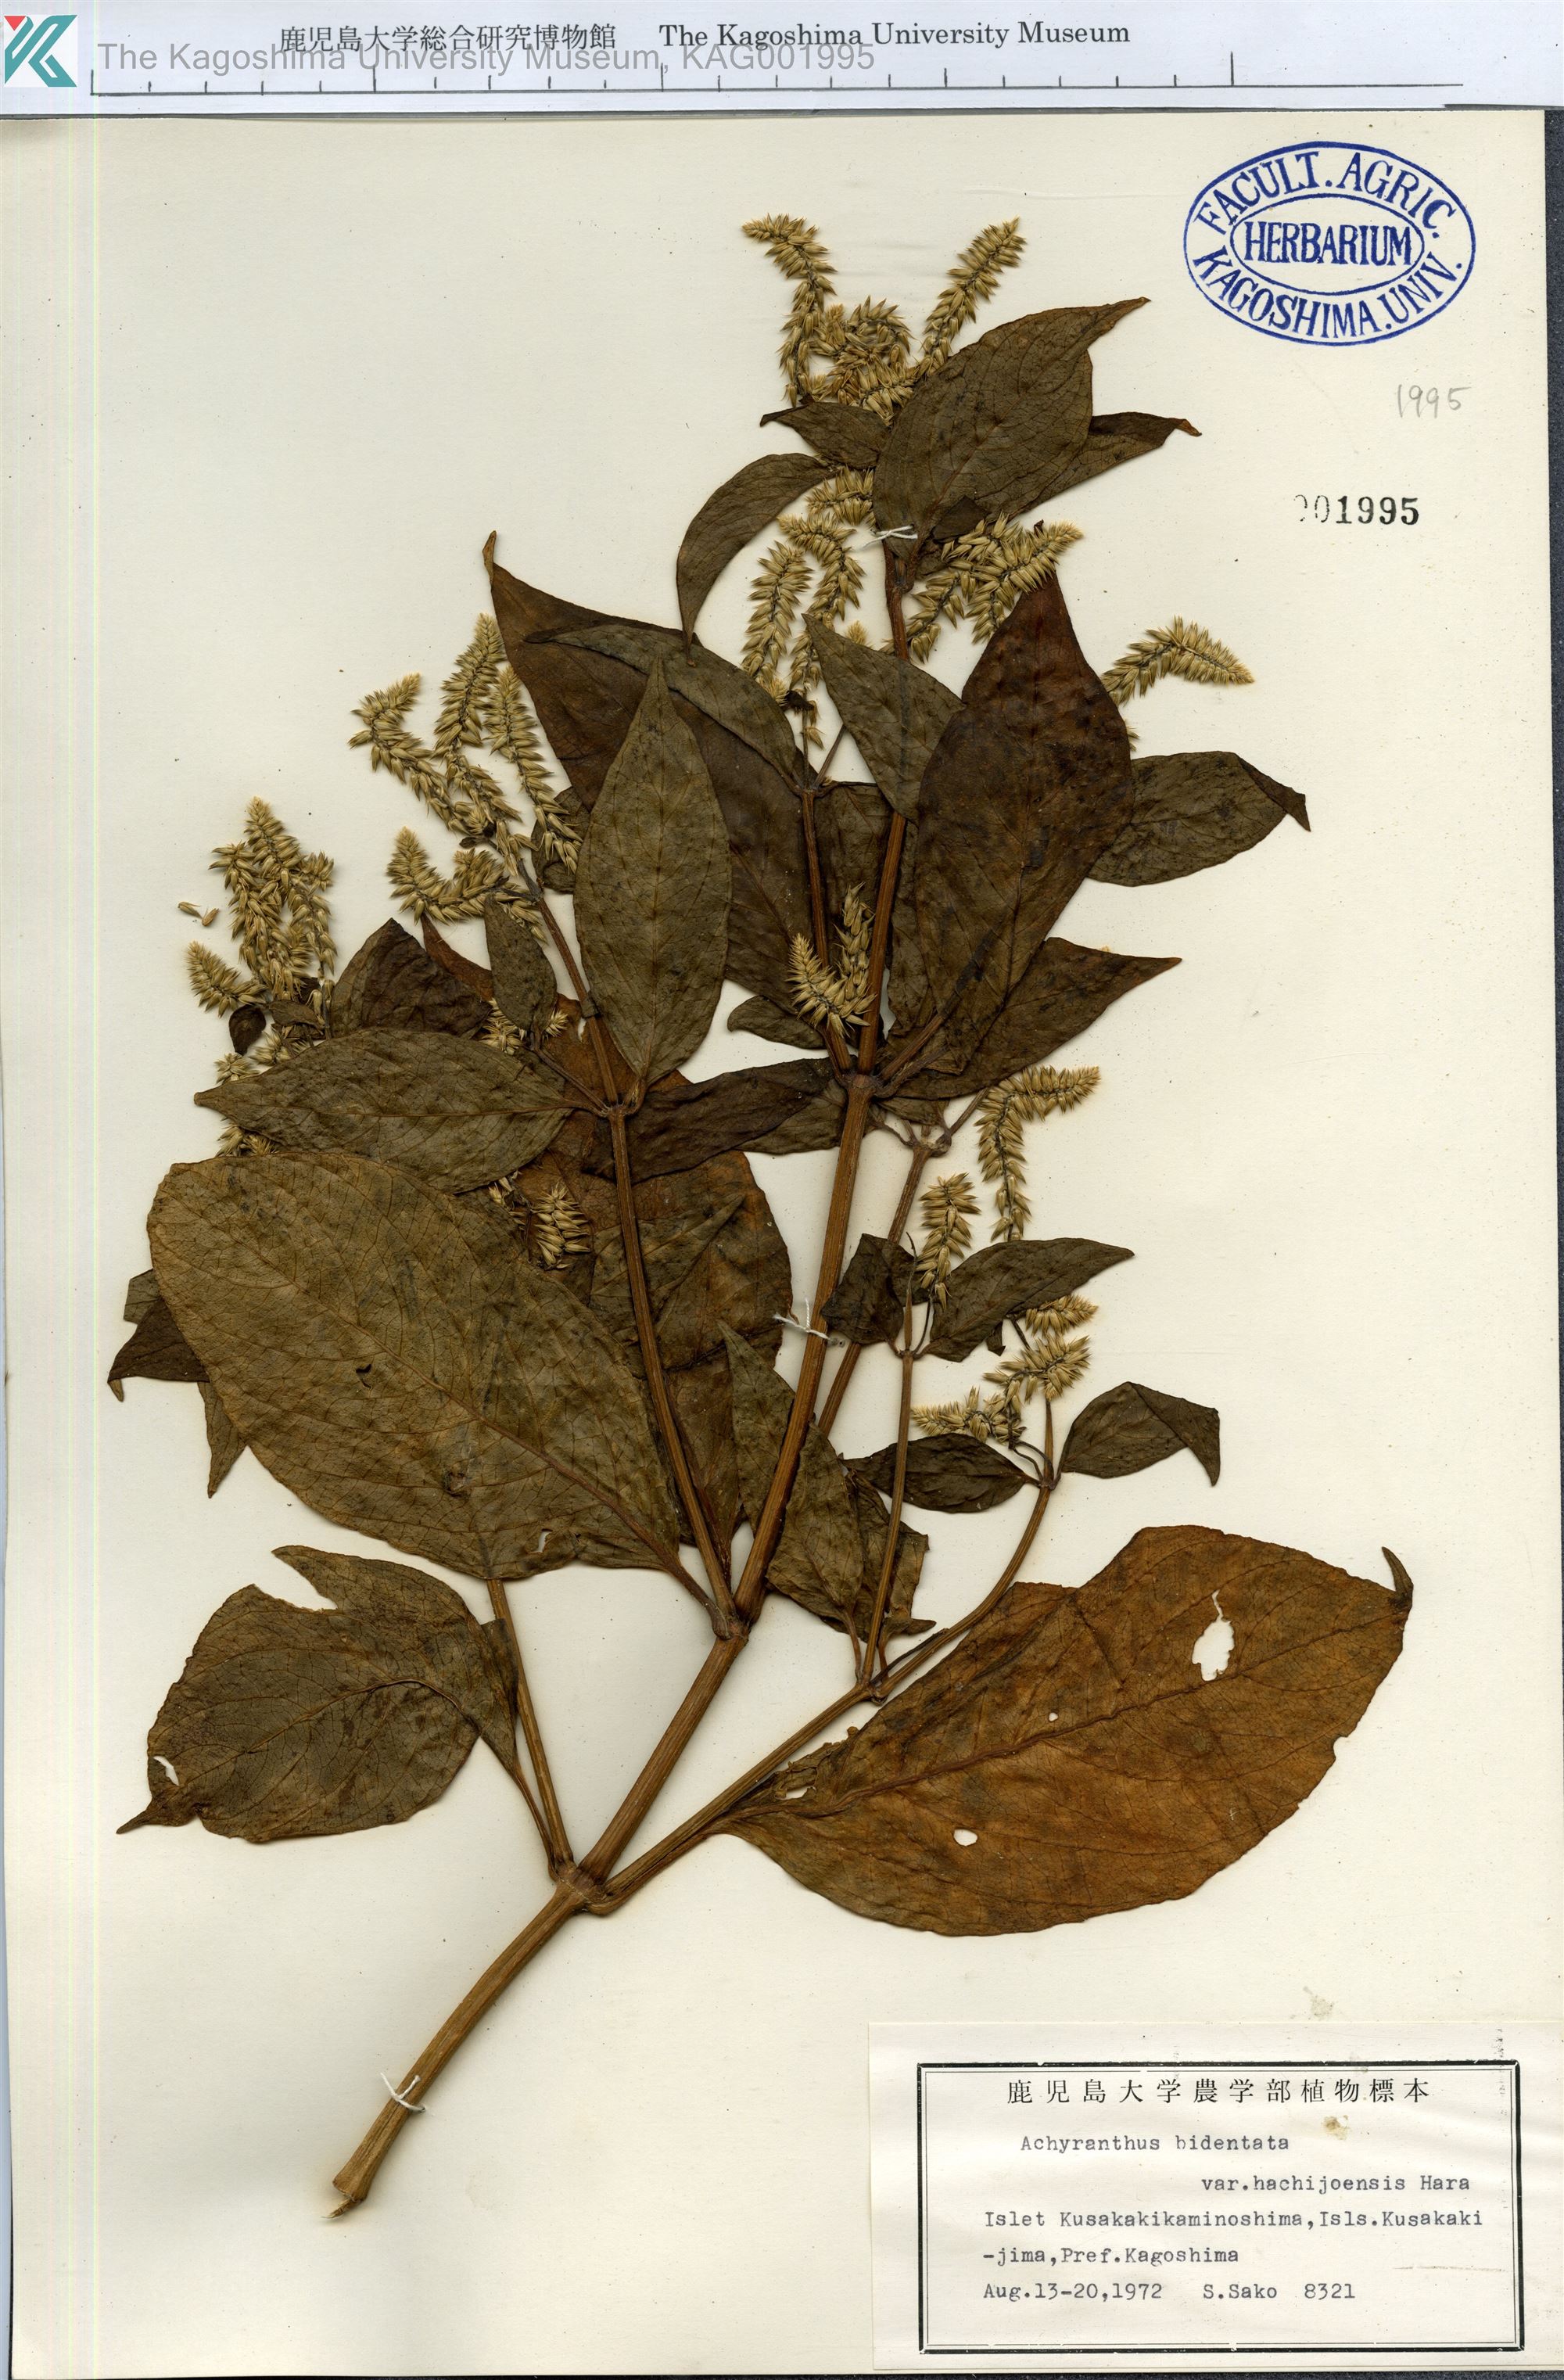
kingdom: Plantae
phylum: Tracheophyta
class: Magnoliopsida
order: Caryophyllales
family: Amaranthaceae
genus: Achyranthes
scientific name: Achyranthes bidentata
